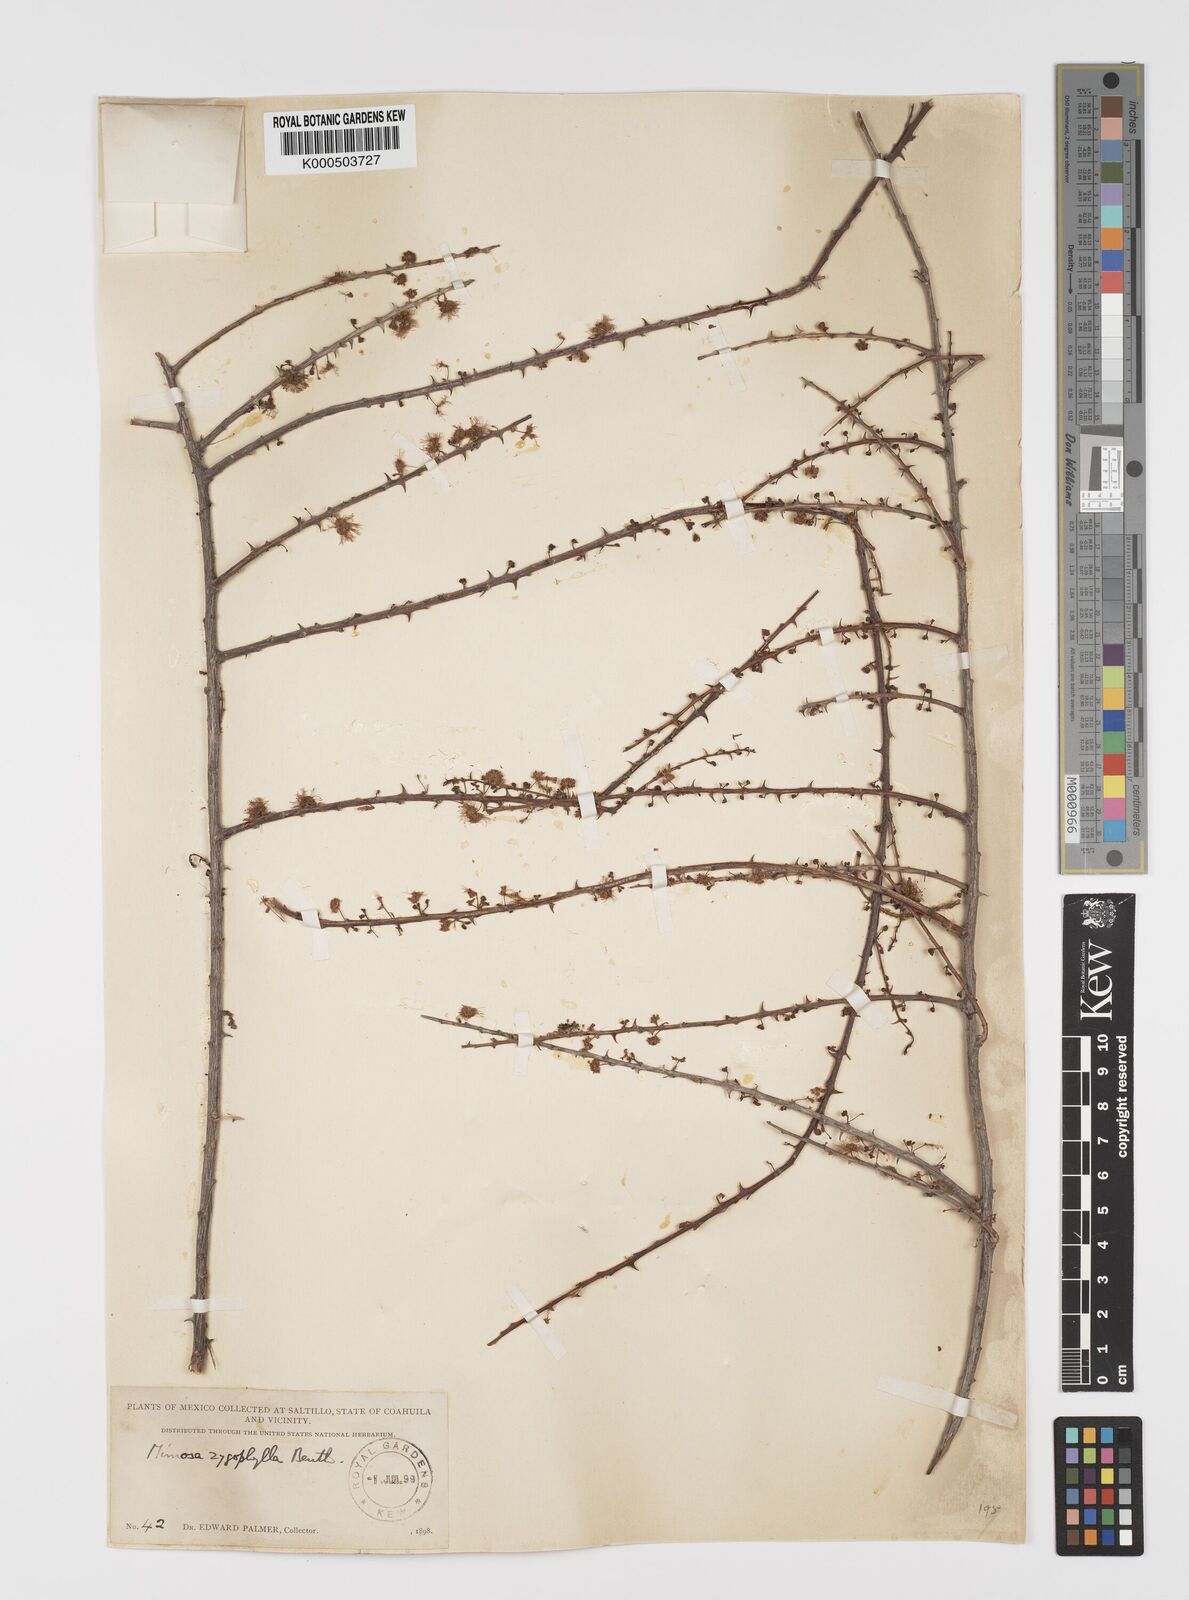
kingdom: Plantae
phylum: Tracheophyta
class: Magnoliopsida
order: Fabales
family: Fabaceae
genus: Mimosa
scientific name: Mimosa zygophylla
